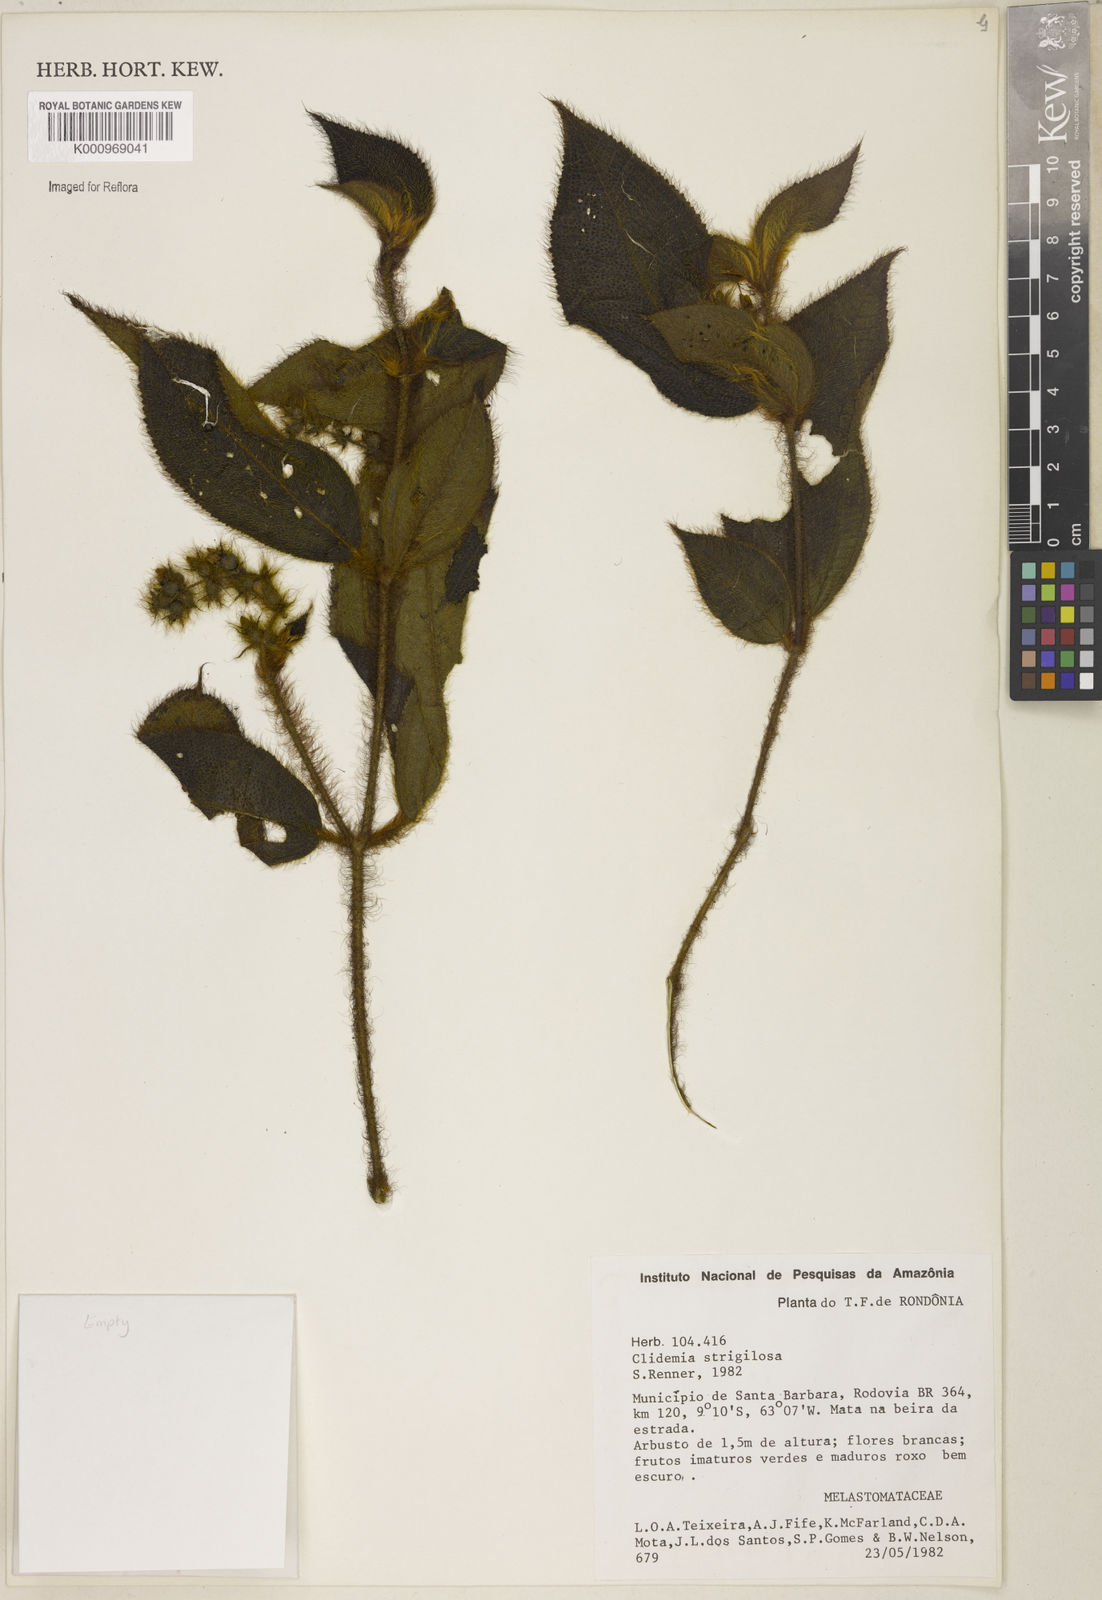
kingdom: Plantae
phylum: Tracheophyta
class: Magnoliopsida
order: Myrtales
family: Melastomataceae
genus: Miconia
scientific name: Miconia strigillosa
